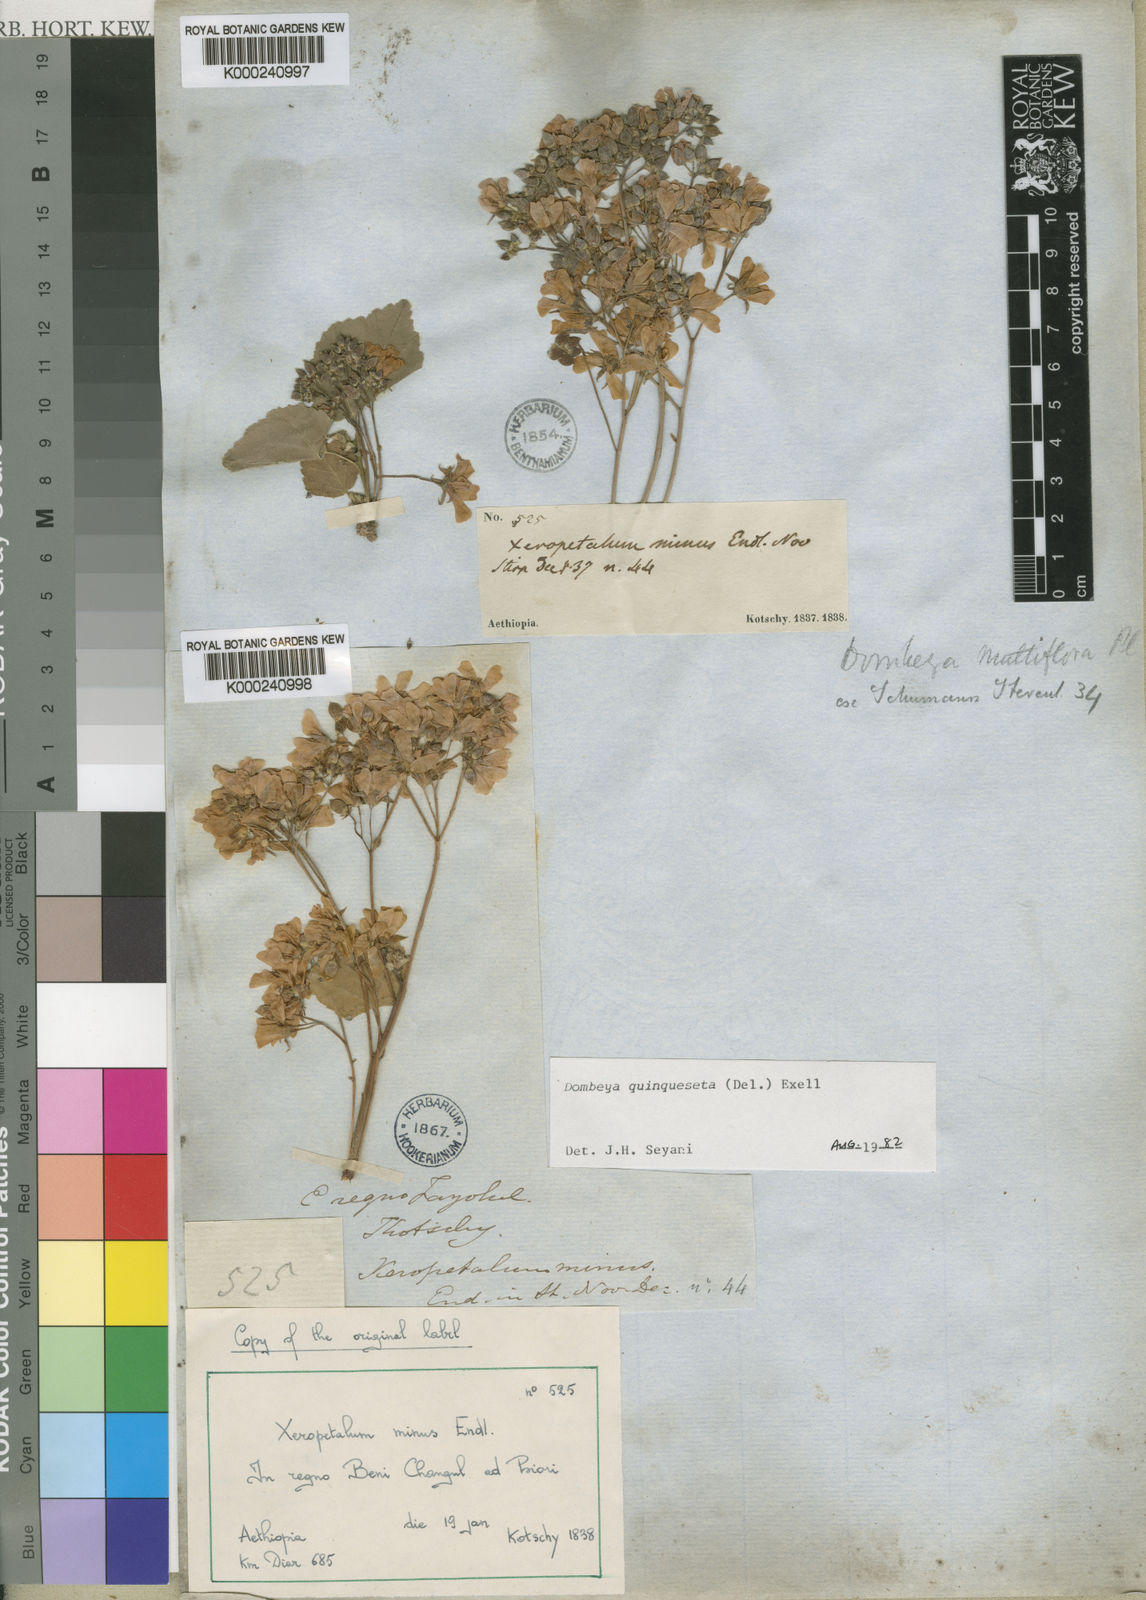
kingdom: Plantae
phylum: Tracheophyta
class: Magnoliopsida
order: Malvales
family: Malvaceae
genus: Dombeya
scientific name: Dombeya quinqueseta
